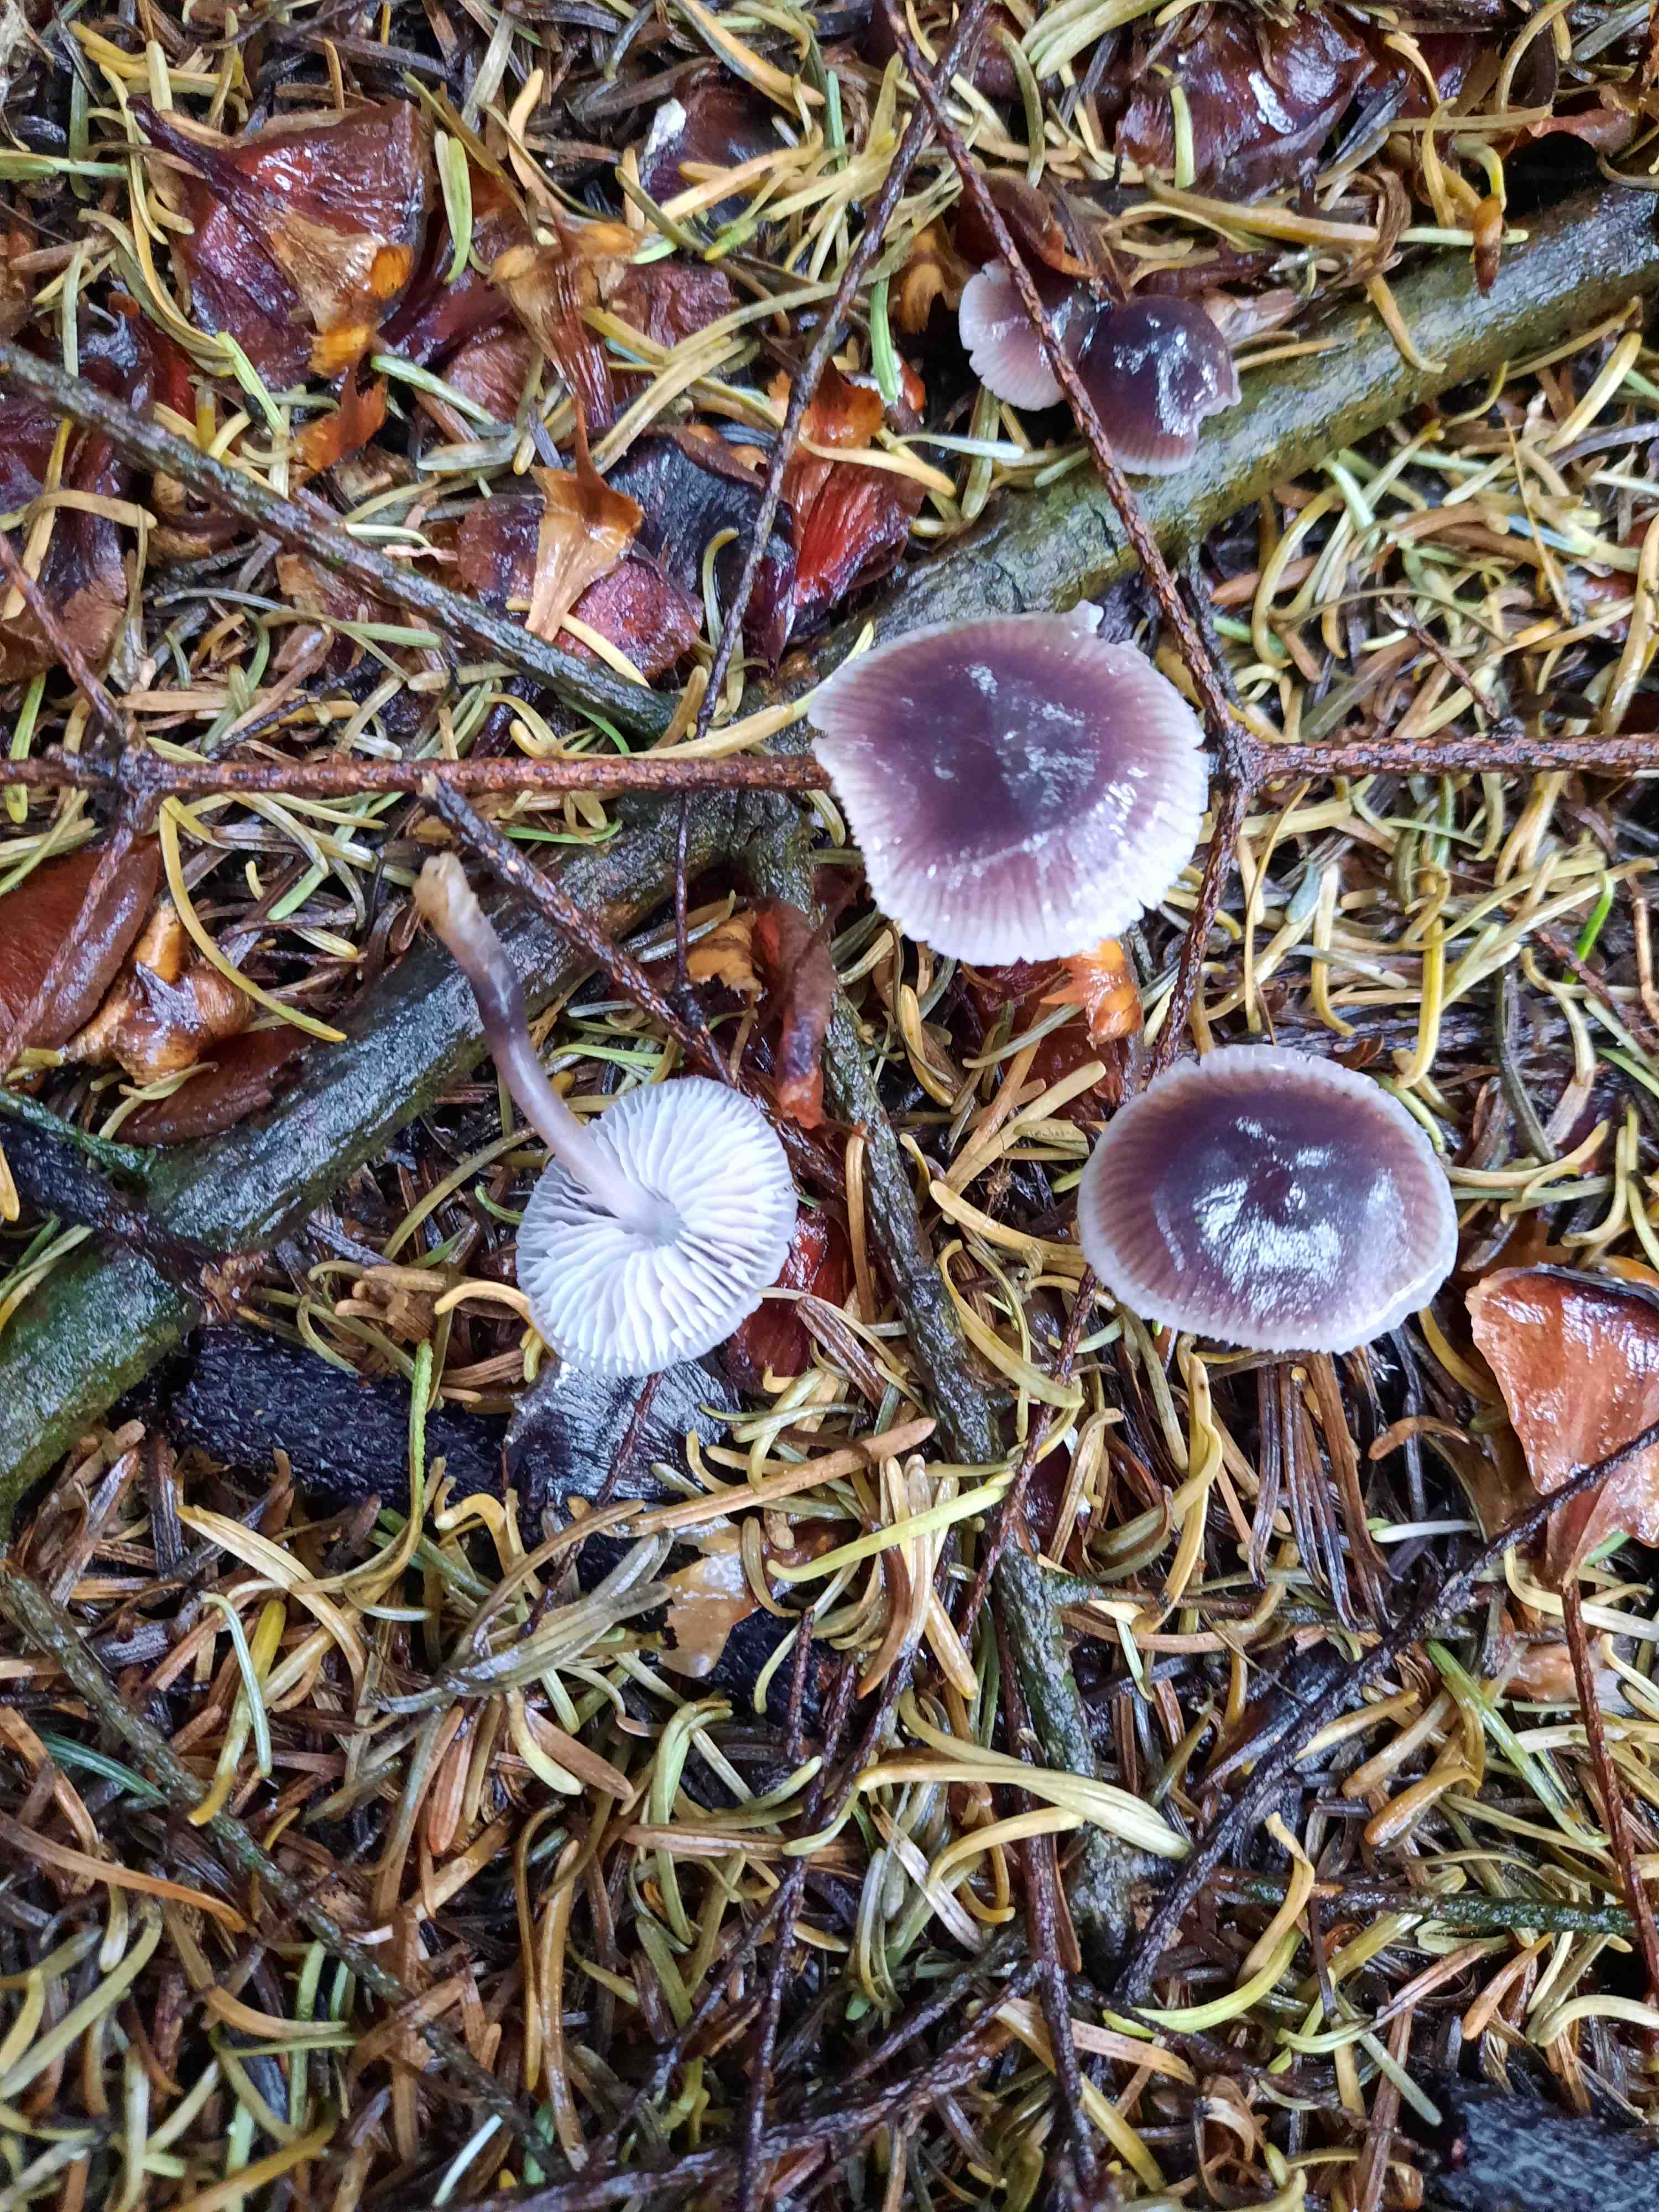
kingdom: Fungi
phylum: Basidiomycota
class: Agaricomycetes
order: Agaricales
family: Mycenaceae
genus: Mycena
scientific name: Mycena
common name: huesvamp
